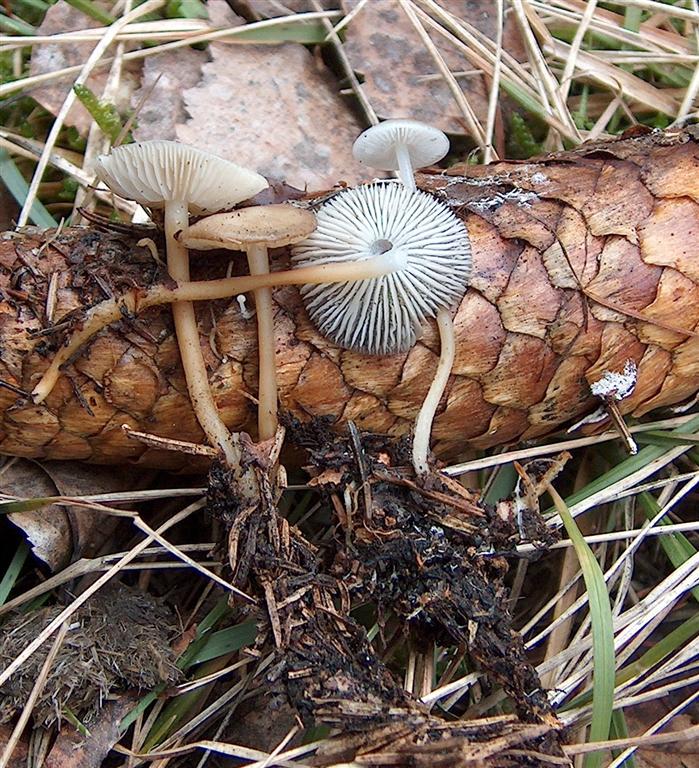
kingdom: Fungi
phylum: Basidiomycota
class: Agaricomycetes
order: Agaricales
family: Physalacriaceae
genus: Strobilurus
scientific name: Strobilurus esculentus
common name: gran-koglehat
